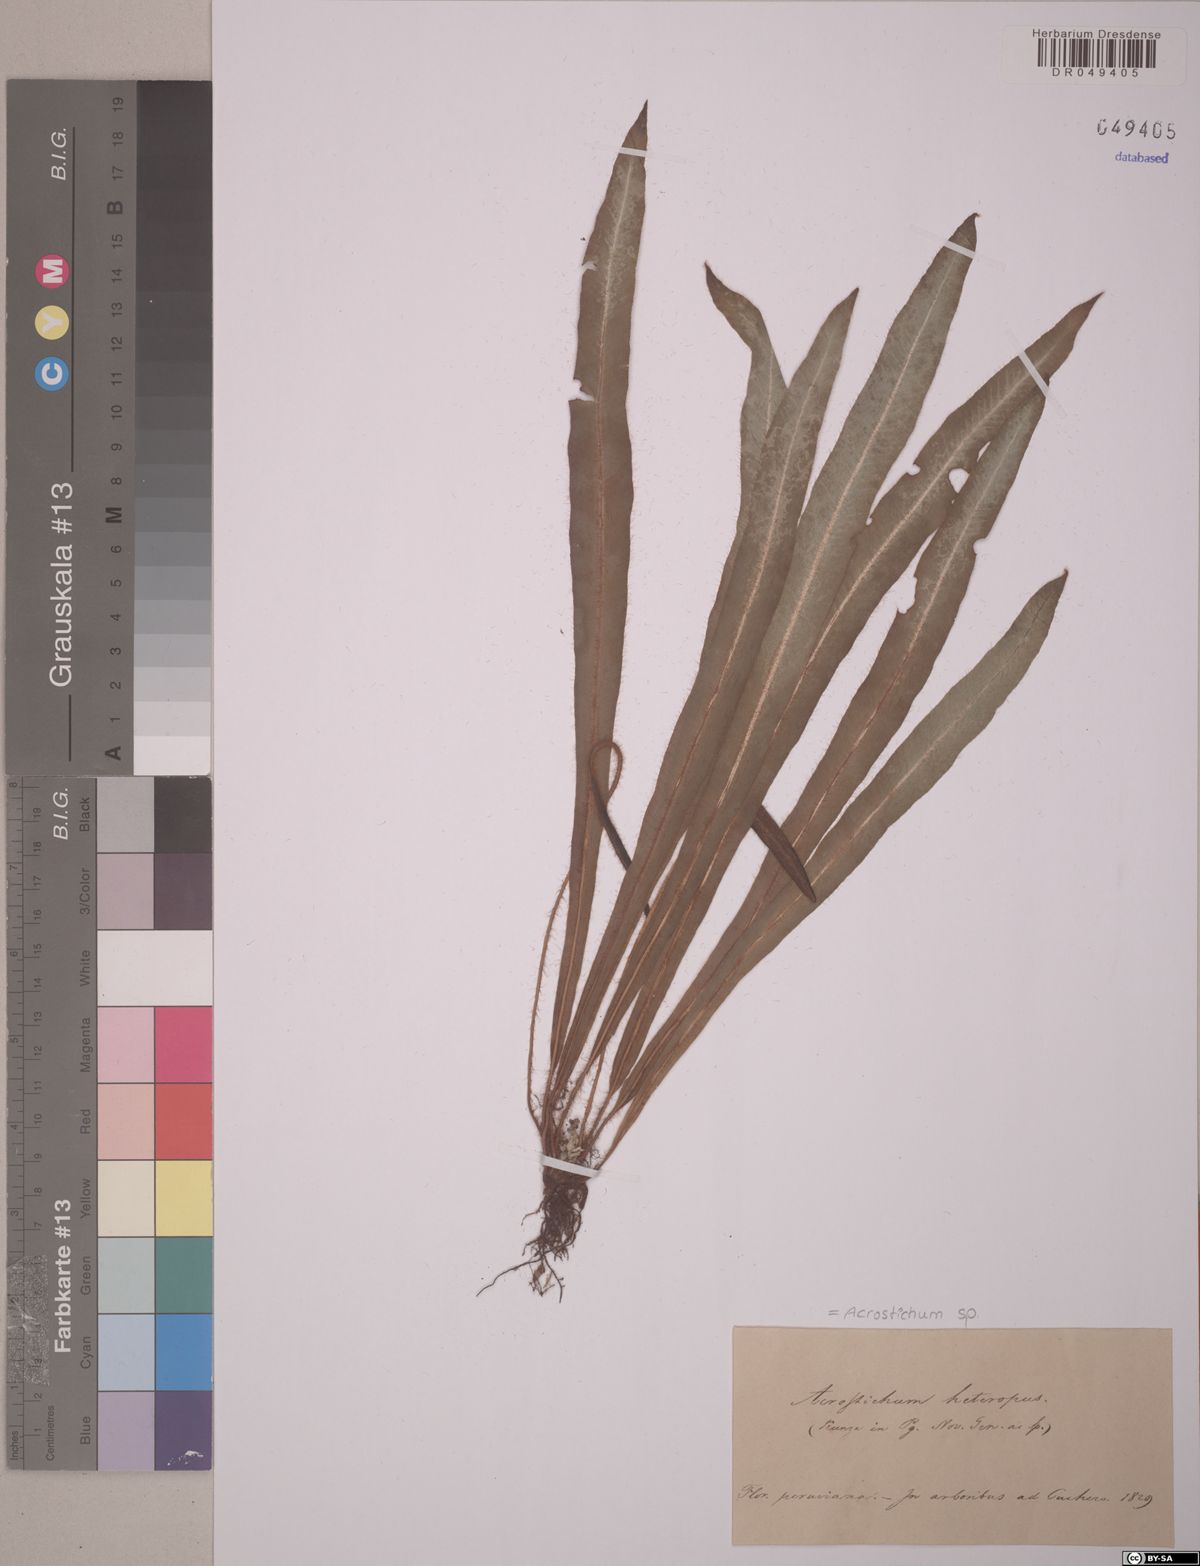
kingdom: Plantae
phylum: Tracheophyta
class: Polypodiopsida
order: Polypodiales
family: Dryopteridaceae
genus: Elaphoglossum
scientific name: Elaphoglossum poeppigianum
